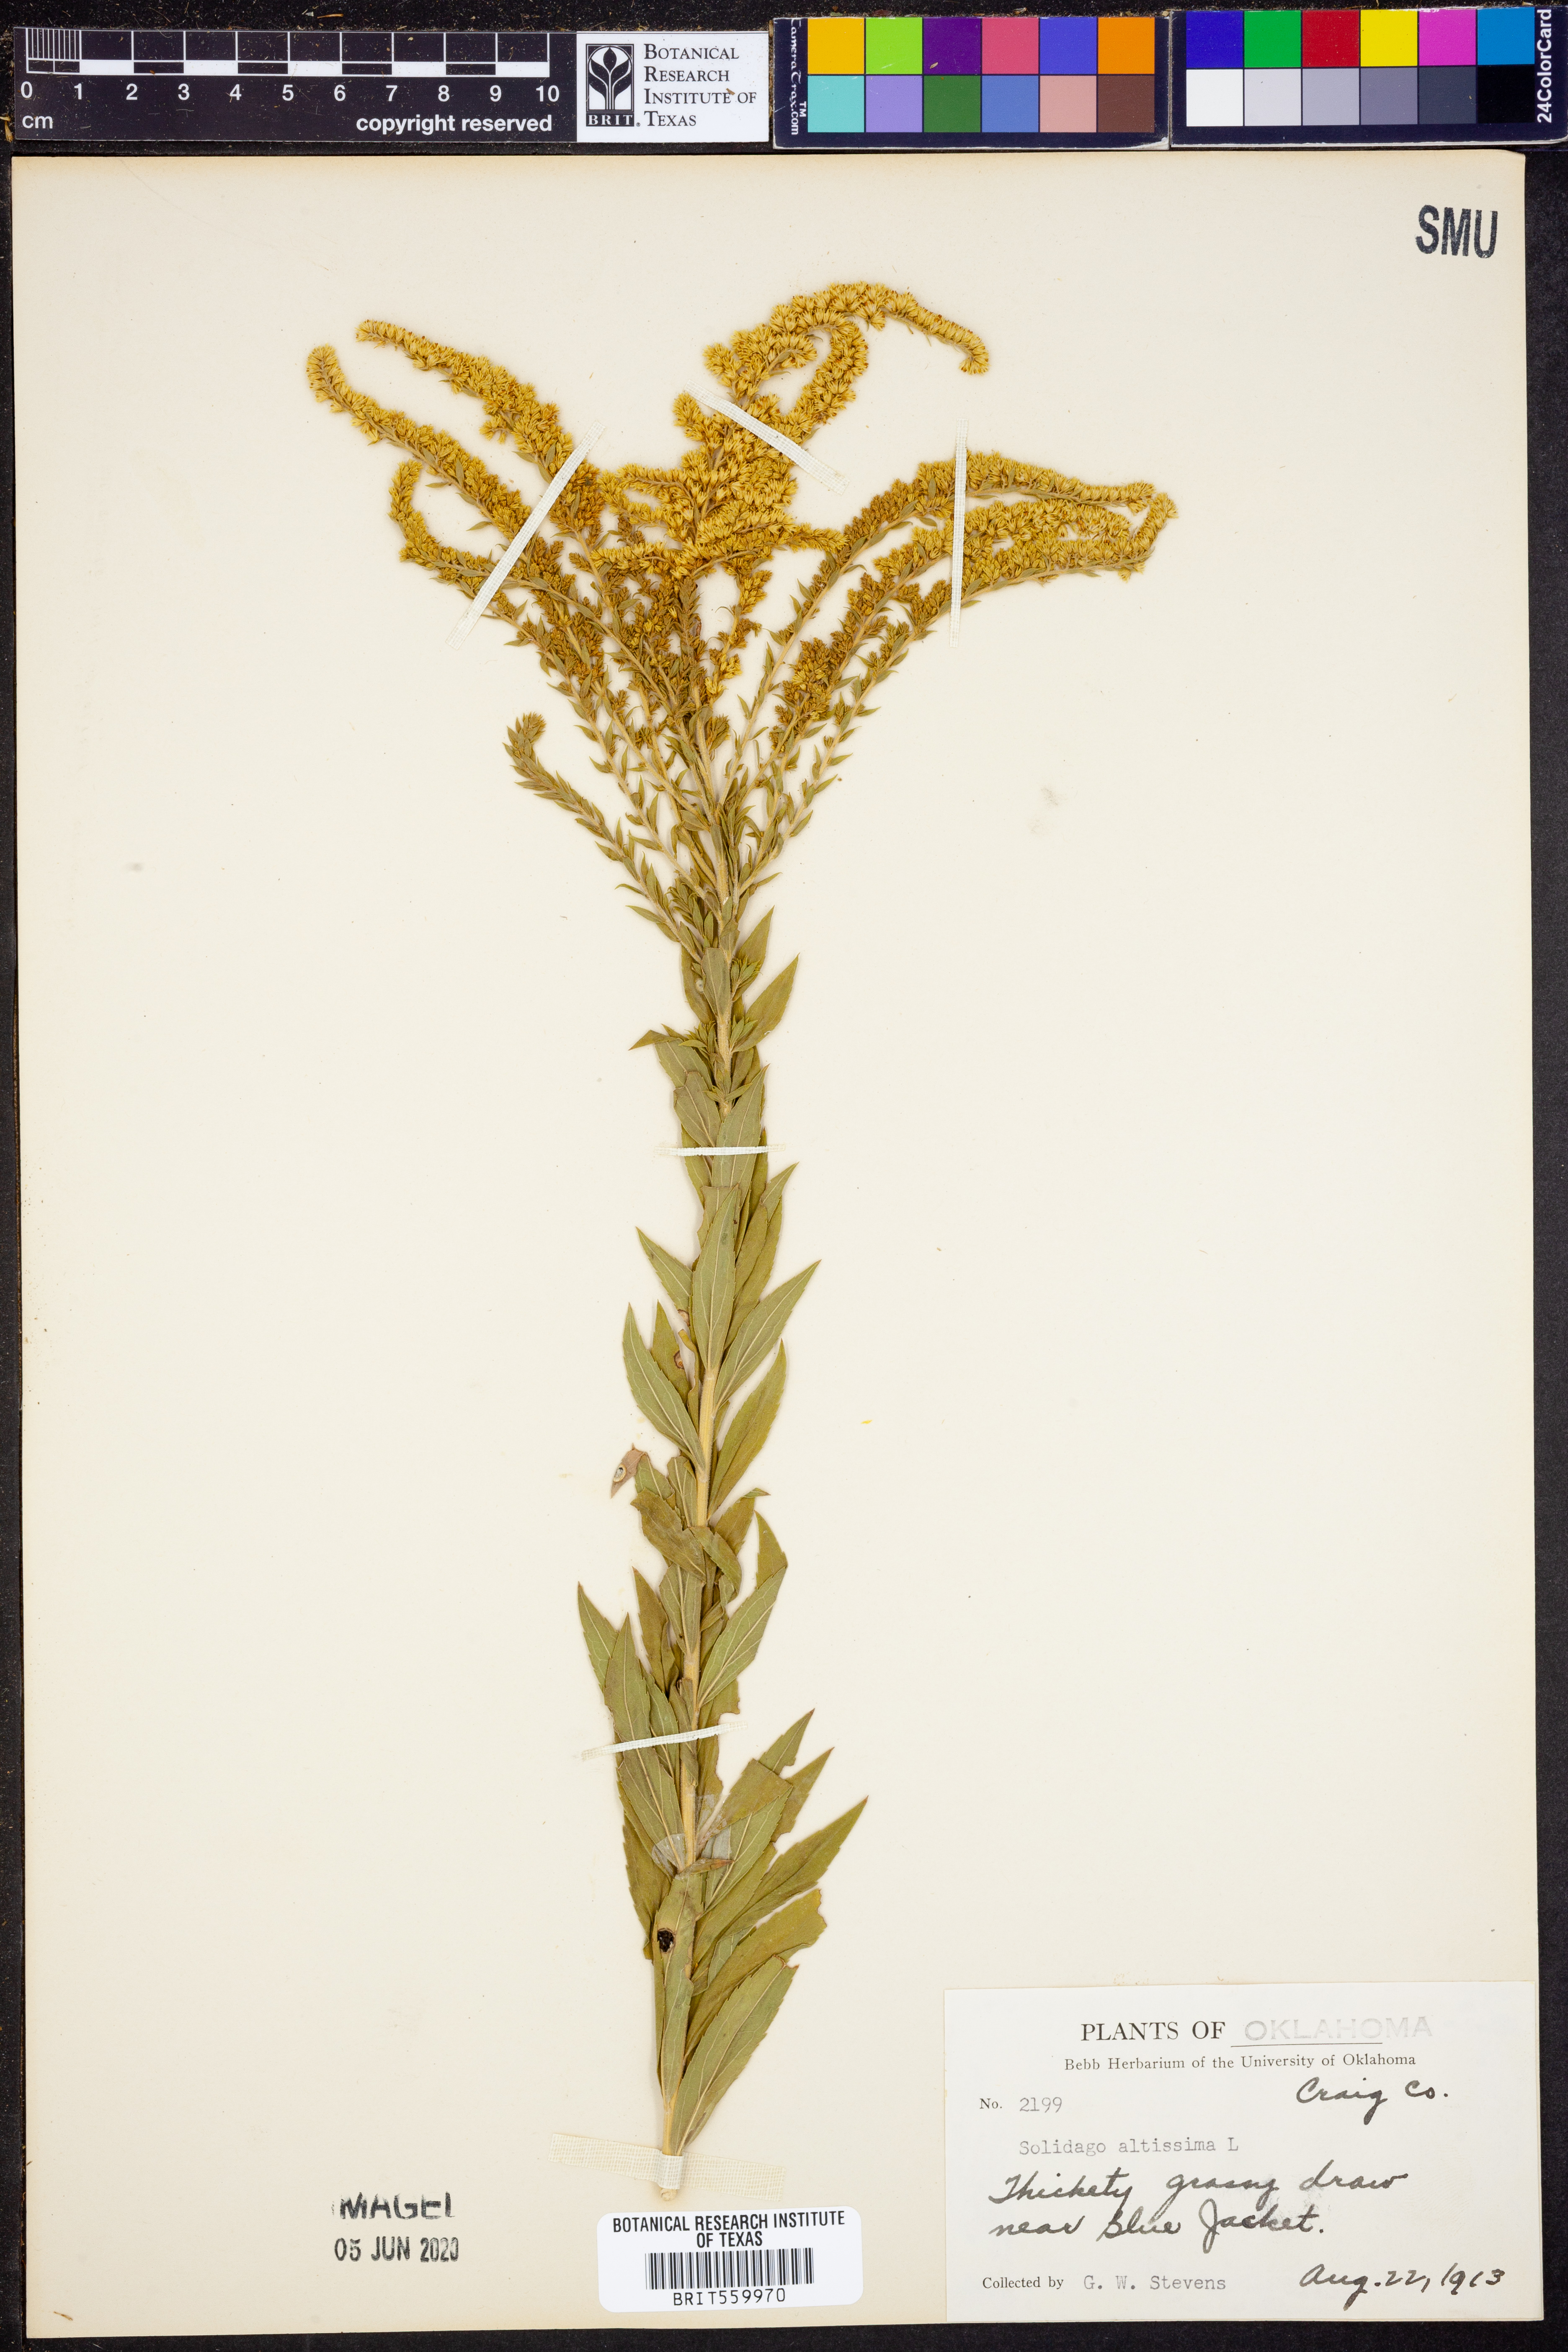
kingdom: Plantae
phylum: Tracheophyta
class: Magnoliopsida
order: Asterales
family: Asteraceae
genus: Solidago
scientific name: Solidago altissima
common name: Late goldenrod
